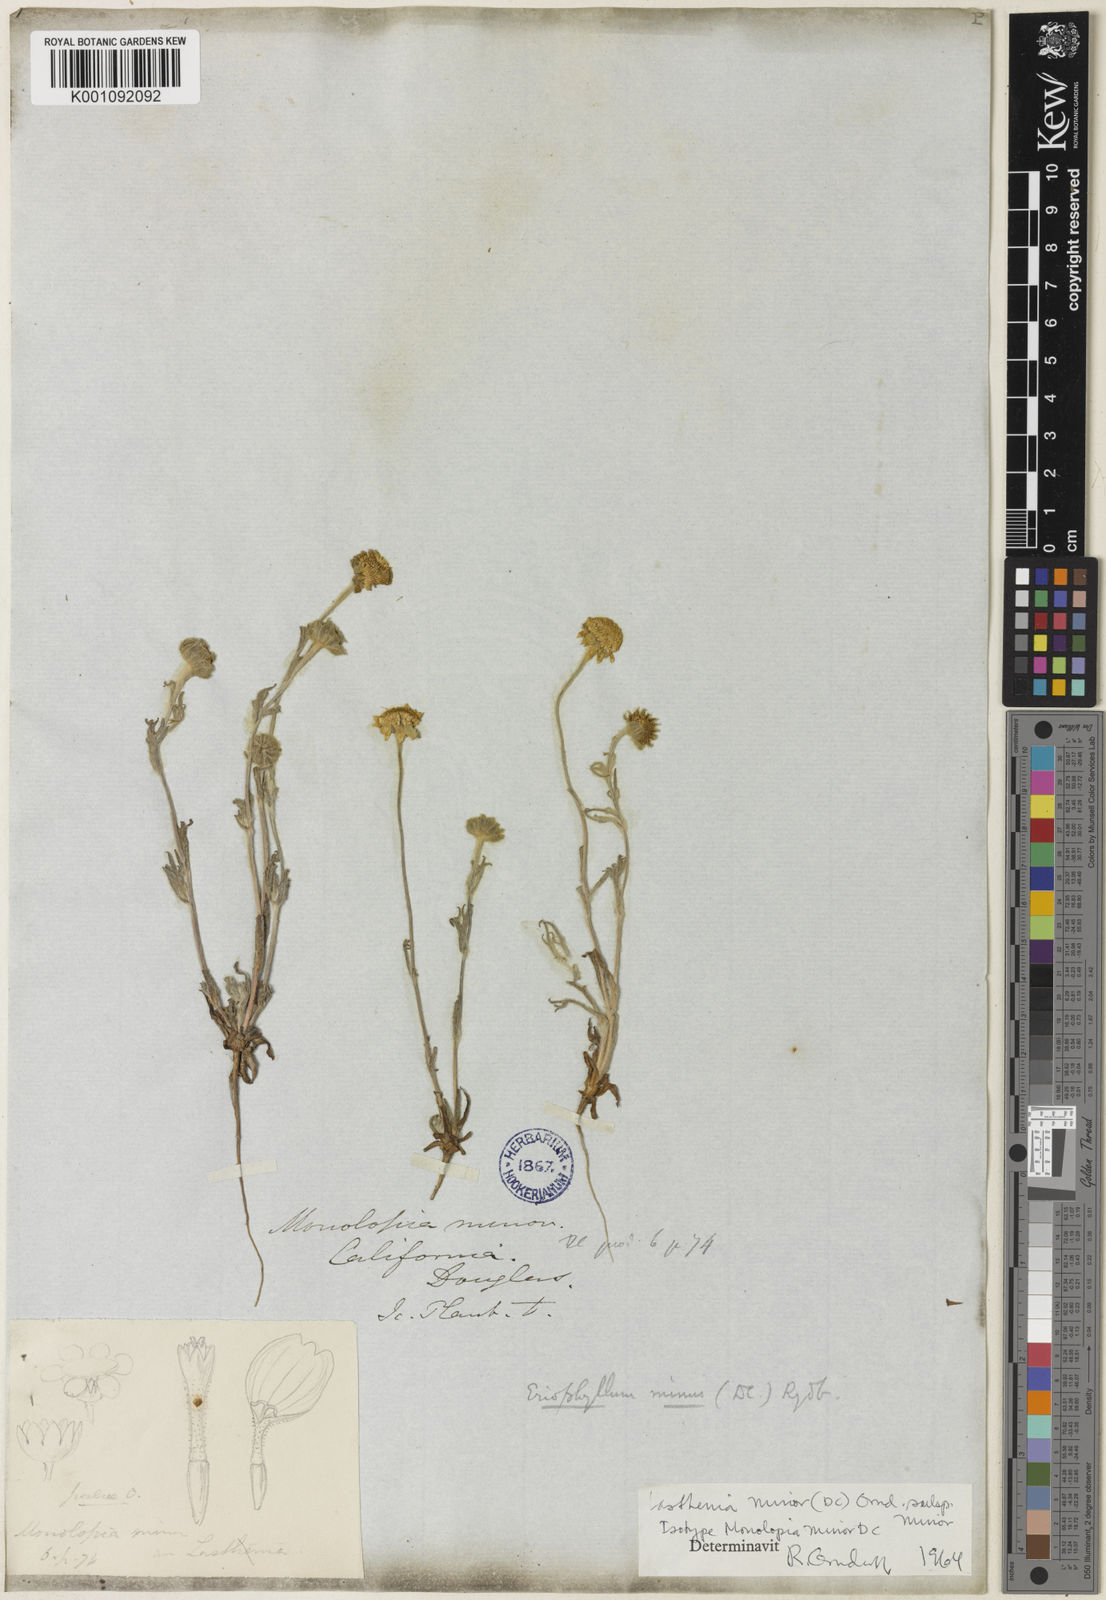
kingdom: Plantae
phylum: Tracheophyta
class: Magnoliopsida
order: Asterales
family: Asteraceae
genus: Lasthenia
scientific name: Lasthenia minor
